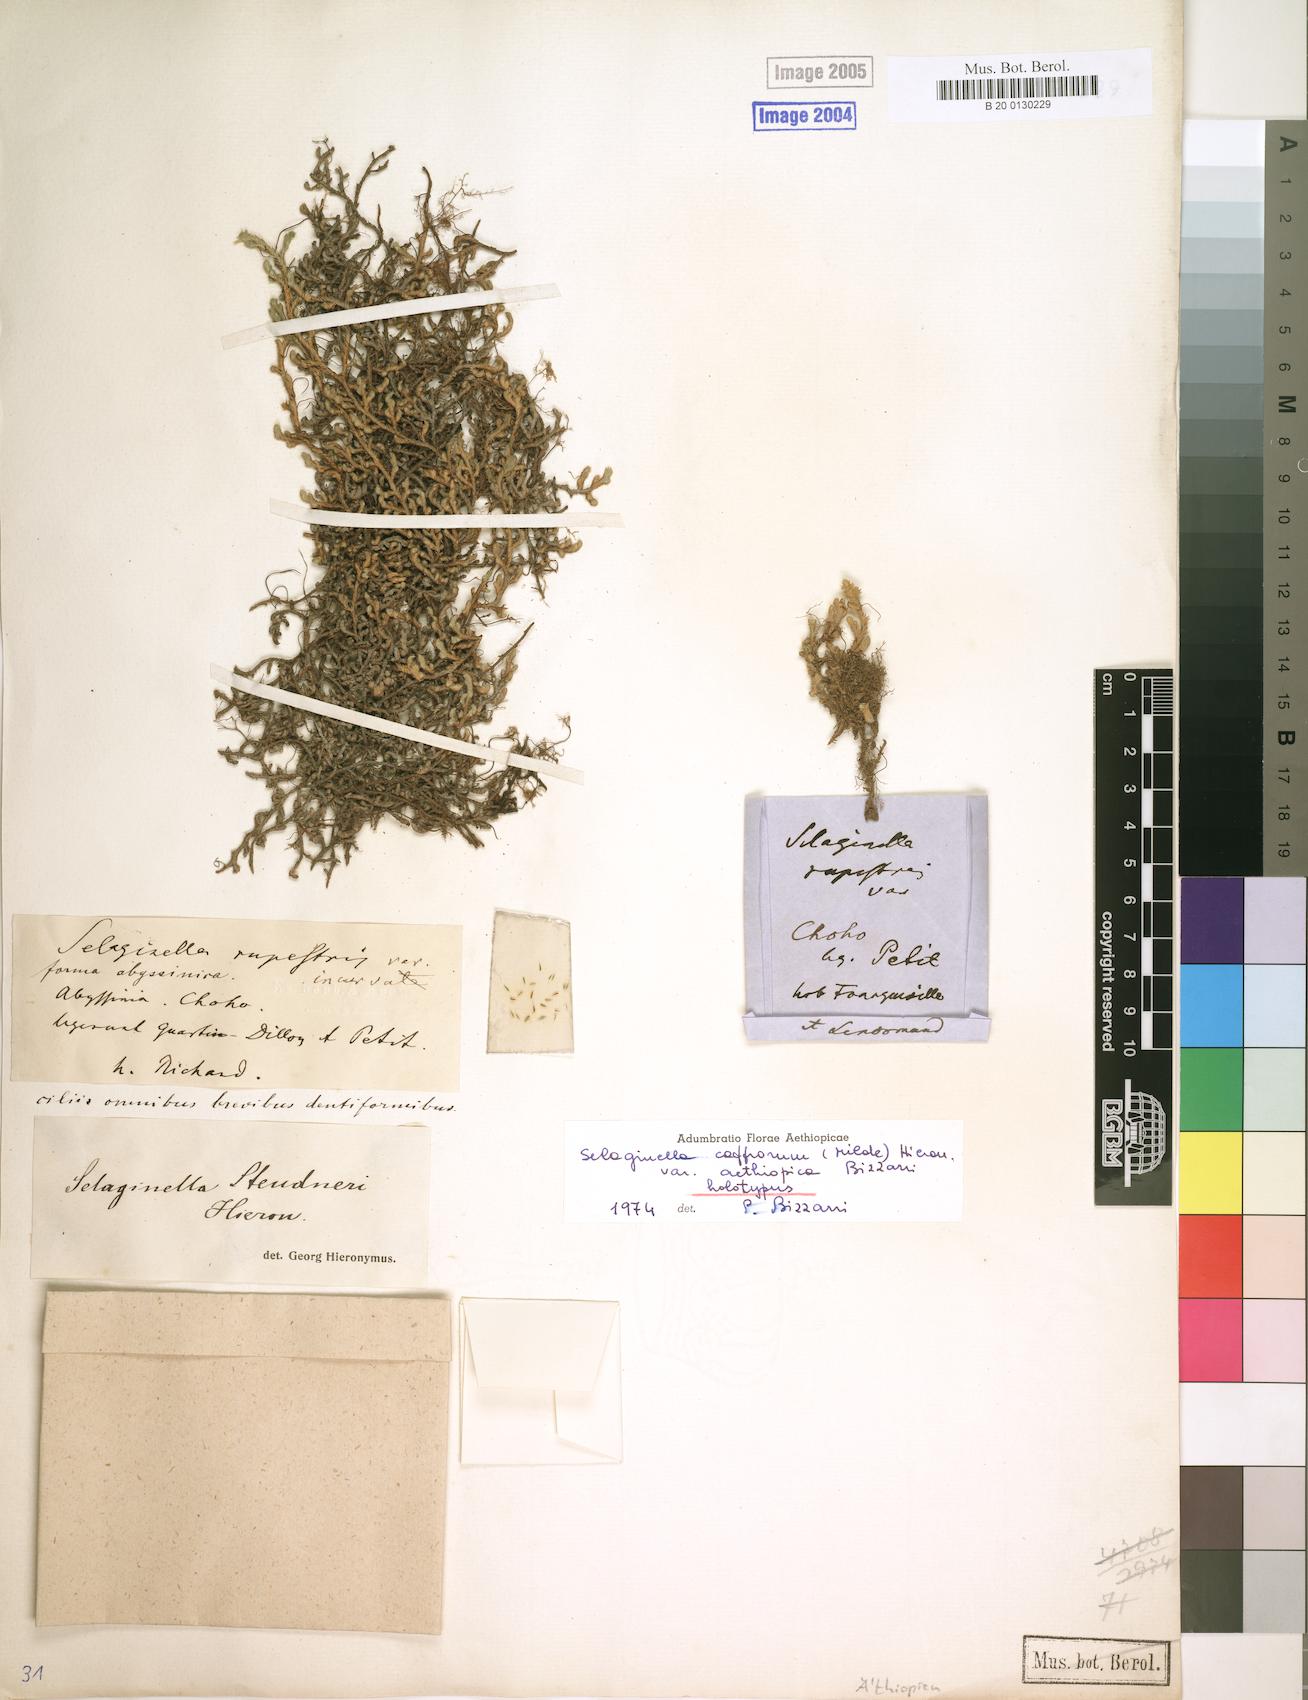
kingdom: Plantae
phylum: Tracheophyta
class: Lycopodiopsida
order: Selaginellales
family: Selaginellaceae
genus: Selaginella
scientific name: Selaginella caffrorum
